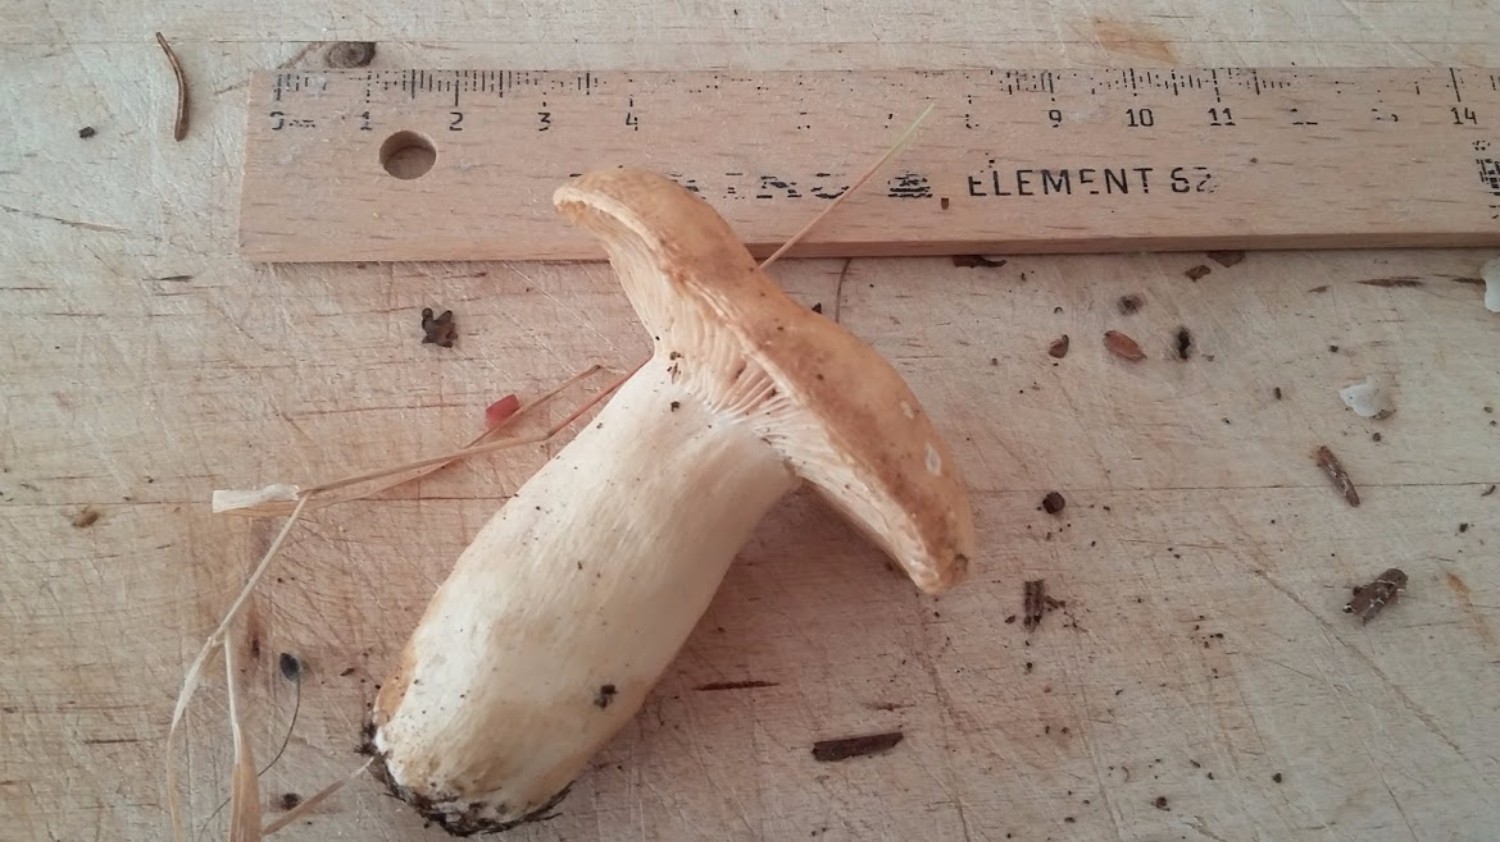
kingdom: Fungi
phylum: Basidiomycota
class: Agaricomycetes
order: Russulales
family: Russulaceae
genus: Russula
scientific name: Russula fellea
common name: galde-skørhat
